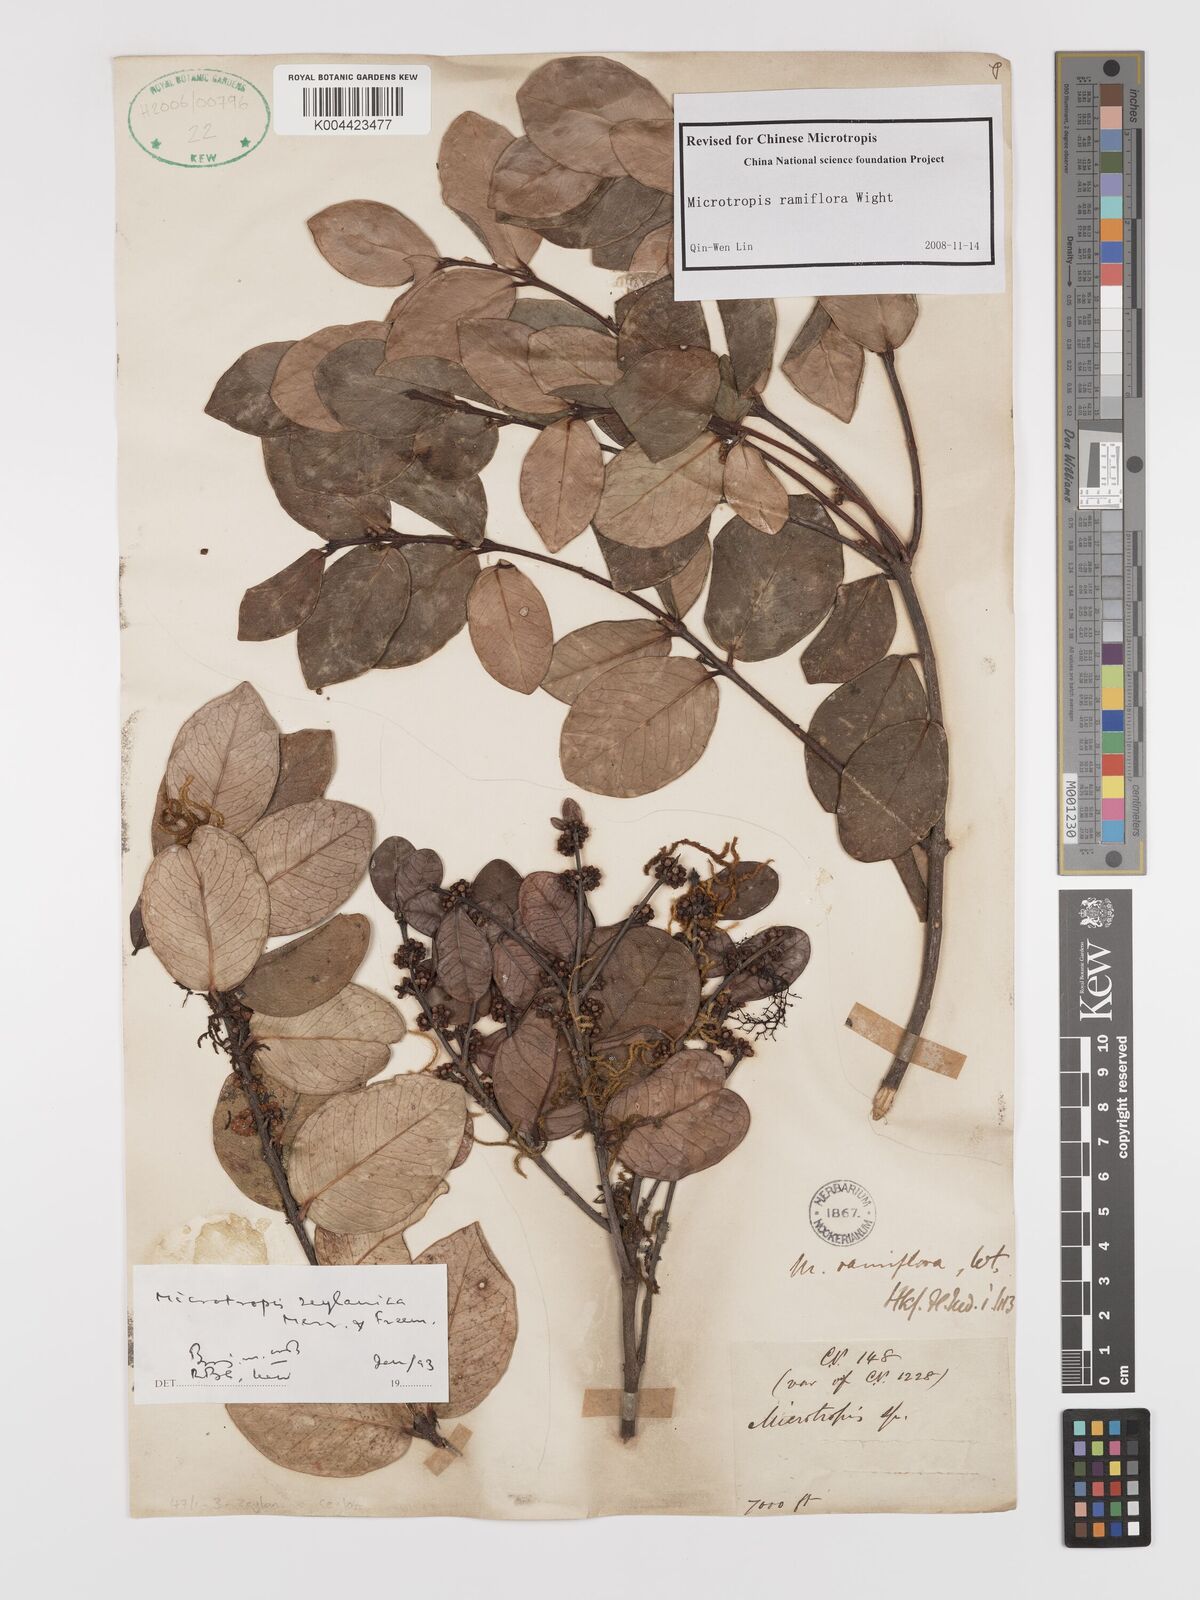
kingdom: Plantae
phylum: Tracheophyta
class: Magnoliopsida
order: Celastrales
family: Celastraceae
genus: Microtropis
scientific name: Microtropis ramiflora
